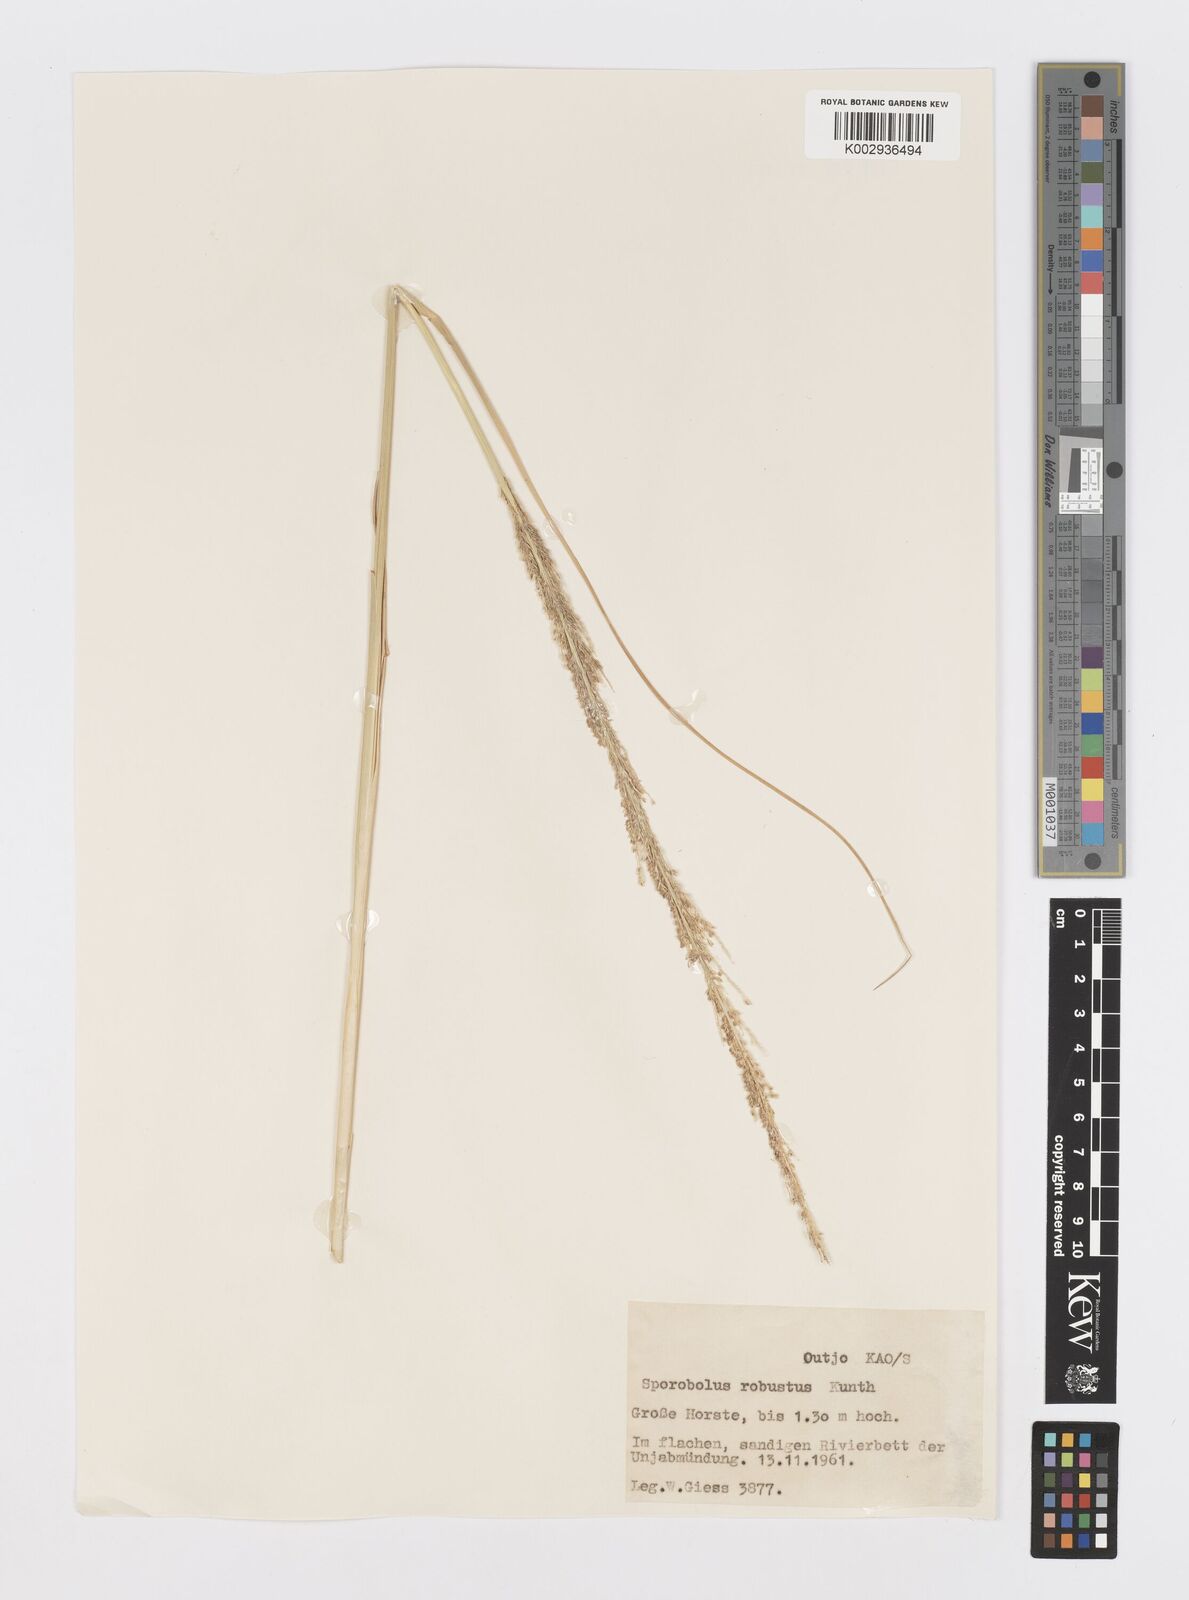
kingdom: Plantae
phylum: Tracheophyta
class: Liliopsida
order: Poales
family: Poaceae
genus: Sporobolus
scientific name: Sporobolus consimilis
